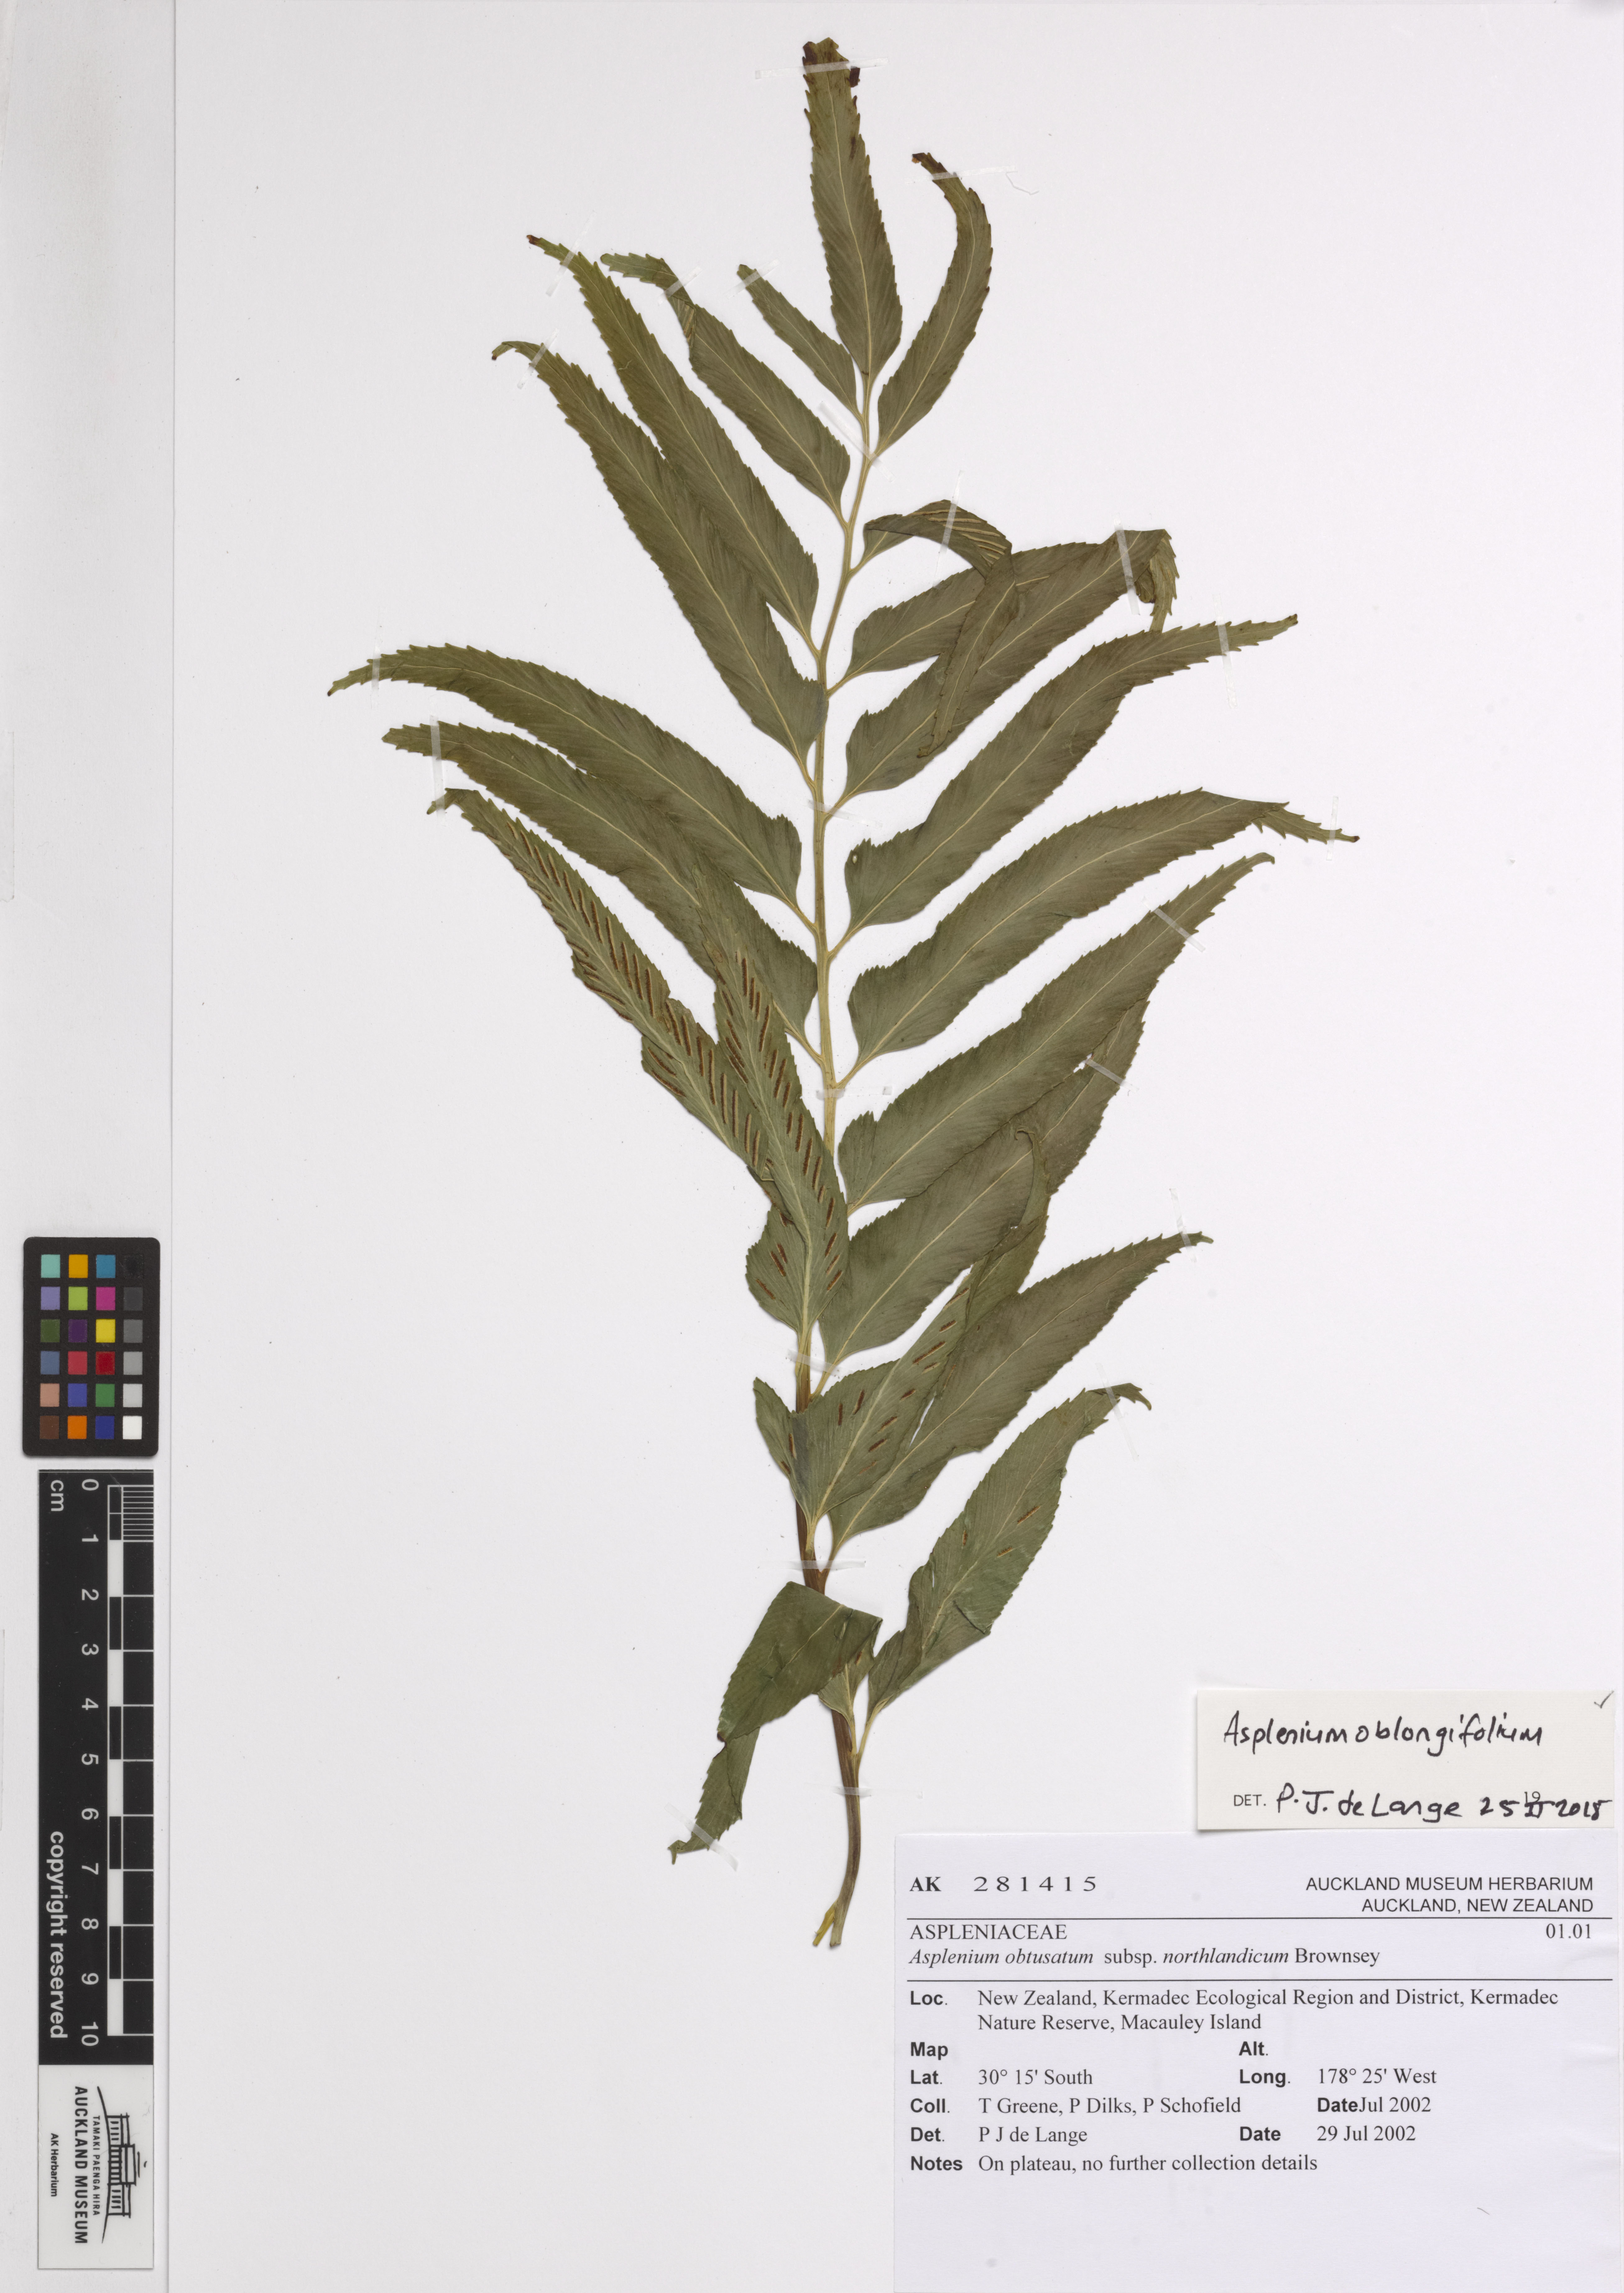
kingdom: Plantae
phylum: Tracheophyta
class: Polypodiopsida
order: Polypodiales
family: Aspleniaceae
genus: Asplenium
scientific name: Asplenium oblongifolium
